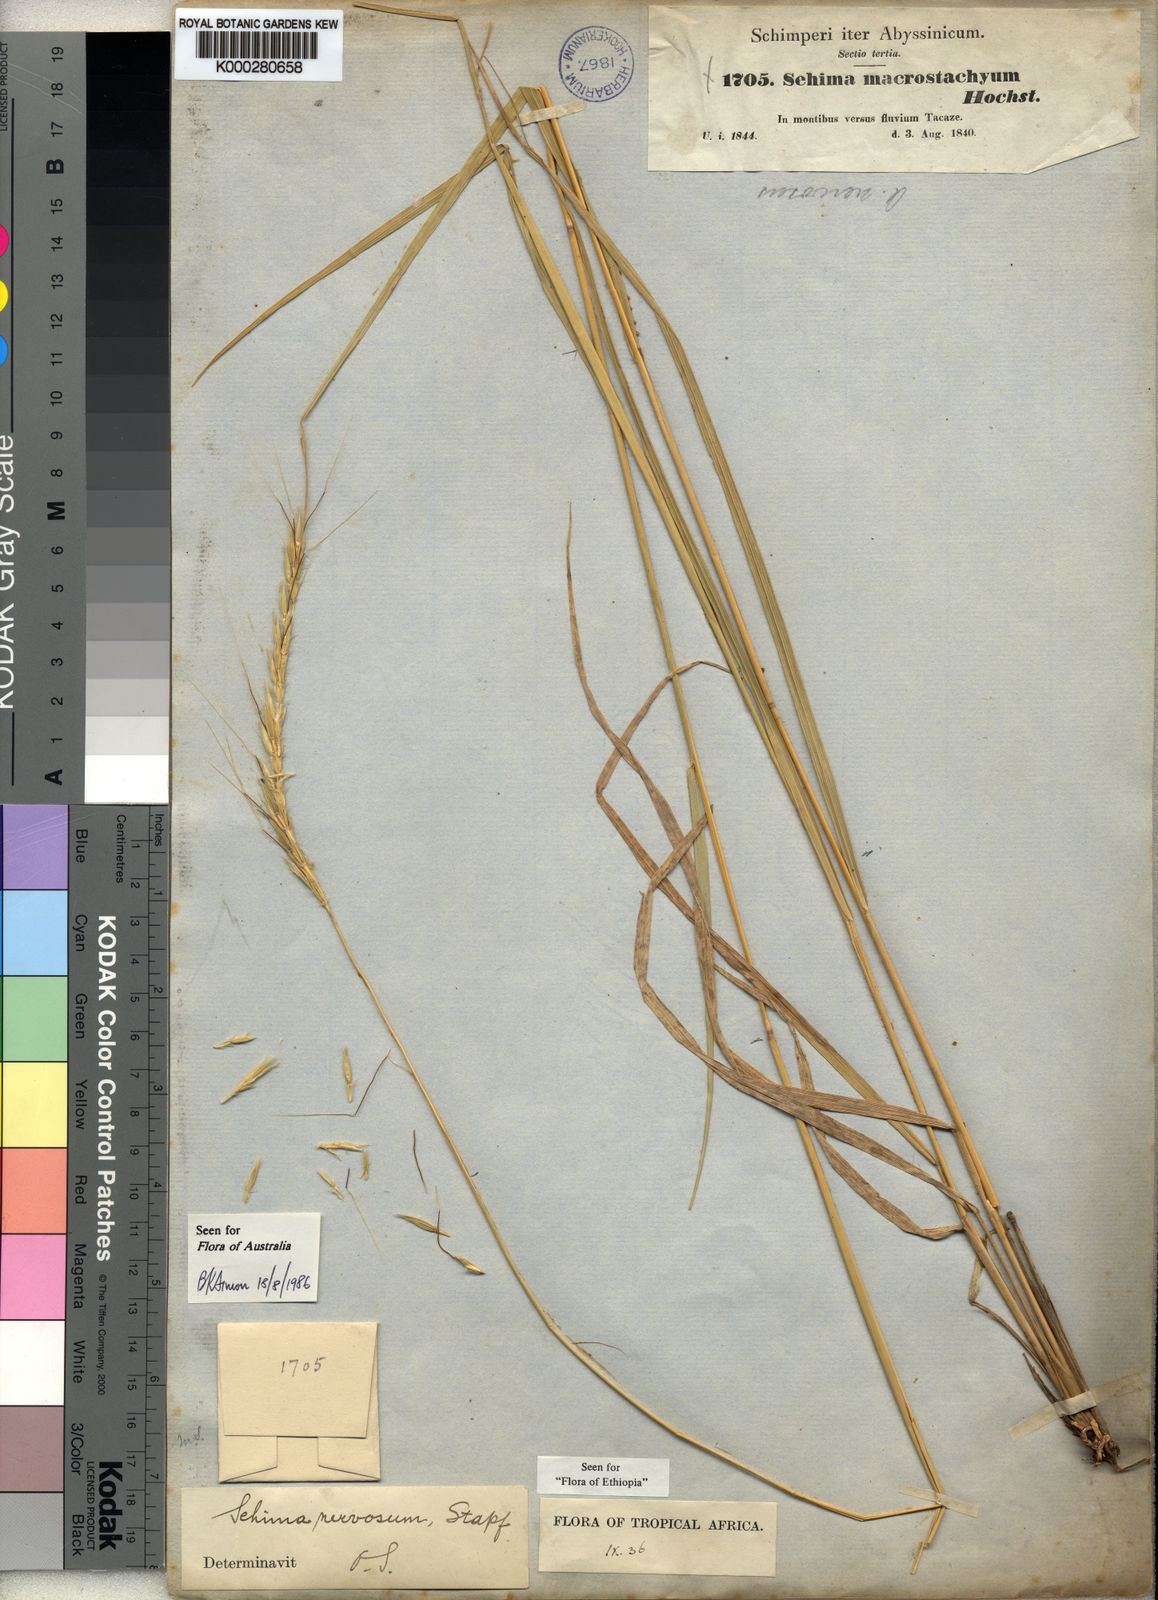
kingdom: Plantae
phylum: Tracheophyta
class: Liliopsida
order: Poales
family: Poaceae
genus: Sehima
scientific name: Sehima nervosa
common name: Rat-tail grass
